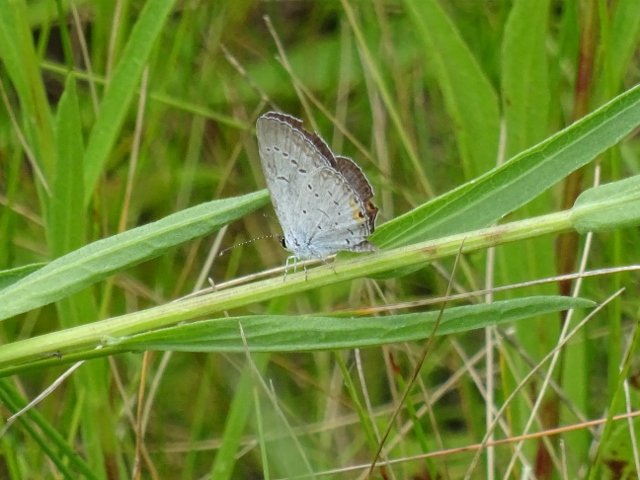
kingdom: Animalia
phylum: Arthropoda
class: Insecta
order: Lepidoptera
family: Lycaenidae
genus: Elkalyce
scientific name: Elkalyce comyntas
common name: Eastern Tailed-Blue
